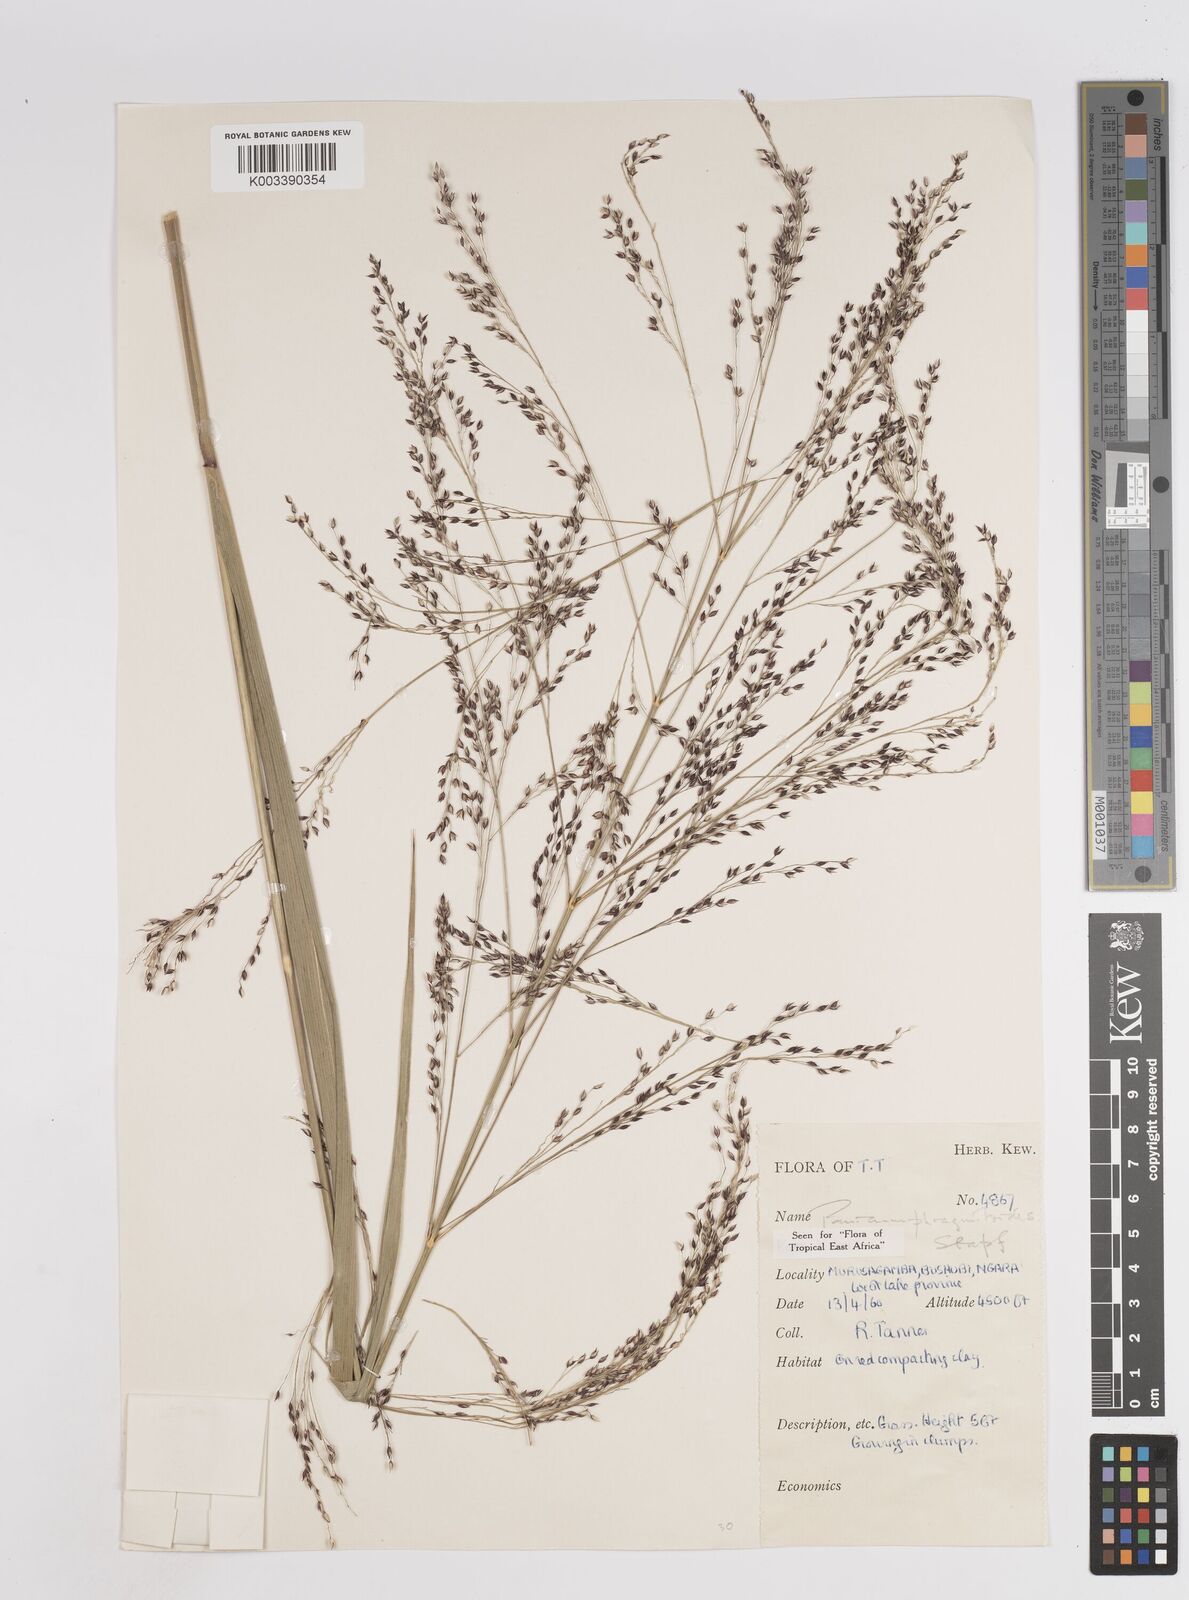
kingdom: Plantae
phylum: Tracheophyta
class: Liliopsida
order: Poales
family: Poaceae
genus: Panicum
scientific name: Panicum phragmitoides
